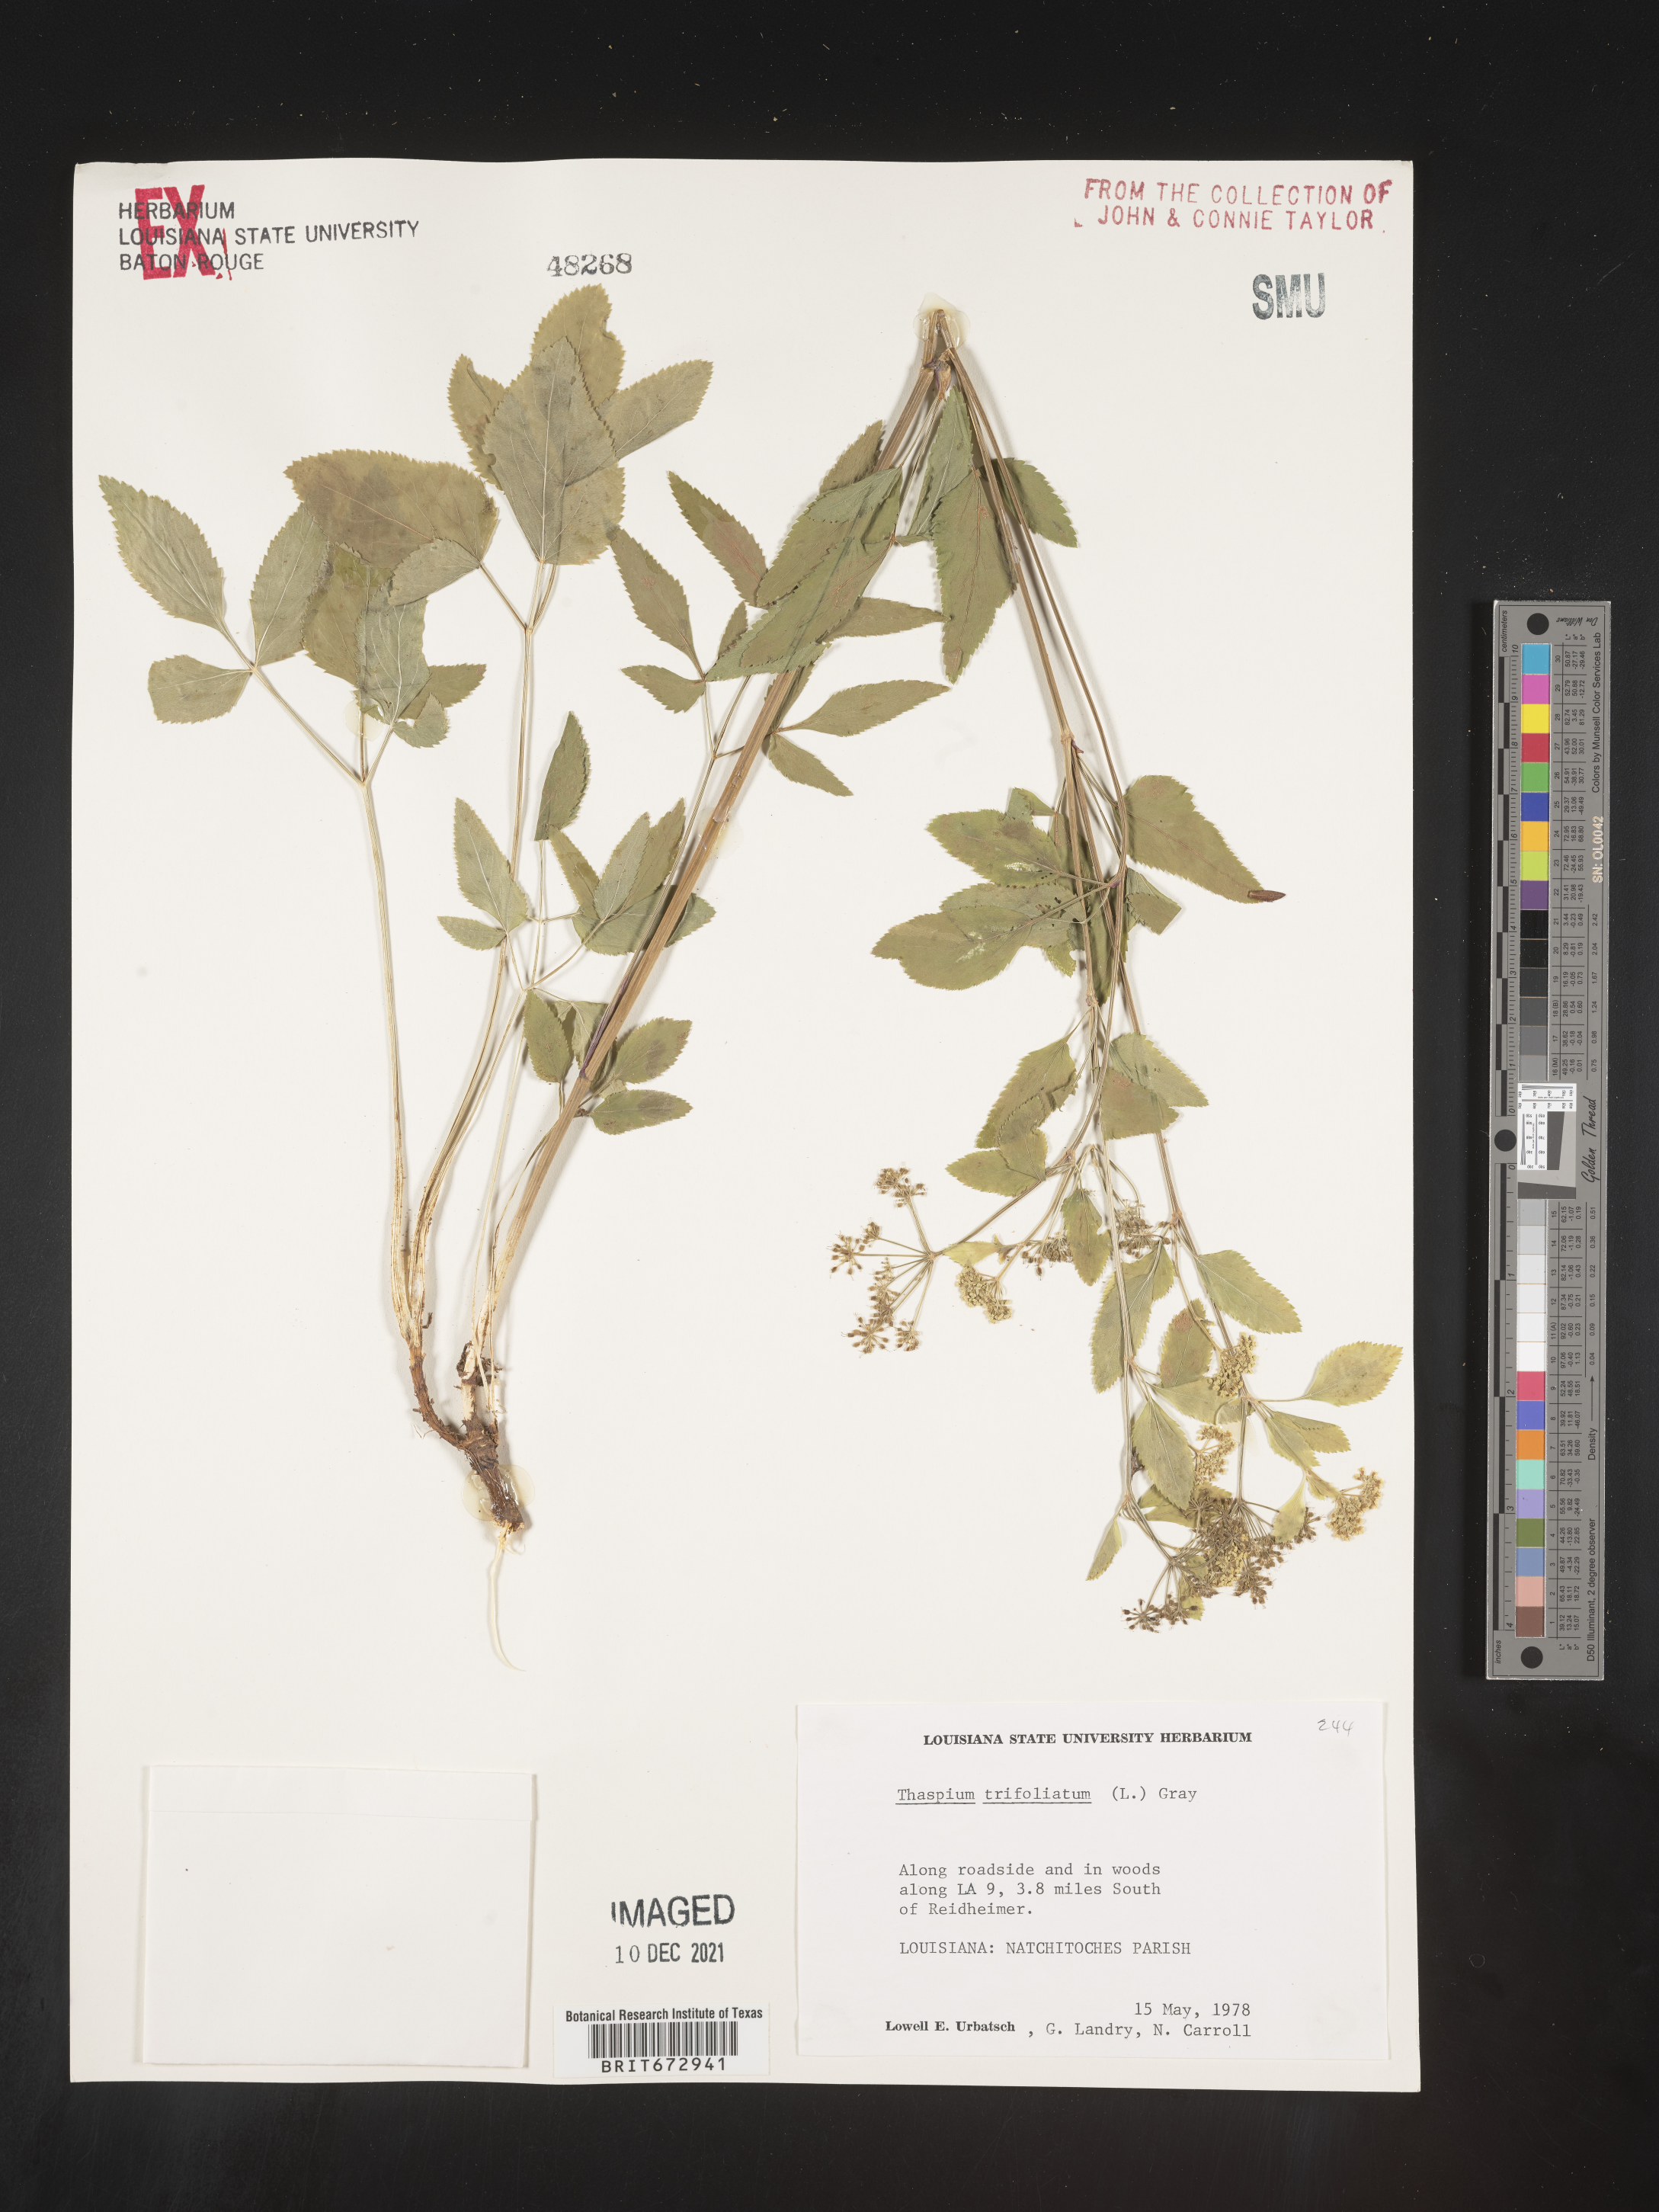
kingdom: Plantae
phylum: Tracheophyta
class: Magnoliopsida
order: Apiales
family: Apiaceae
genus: Thaspium
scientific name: Thaspium
